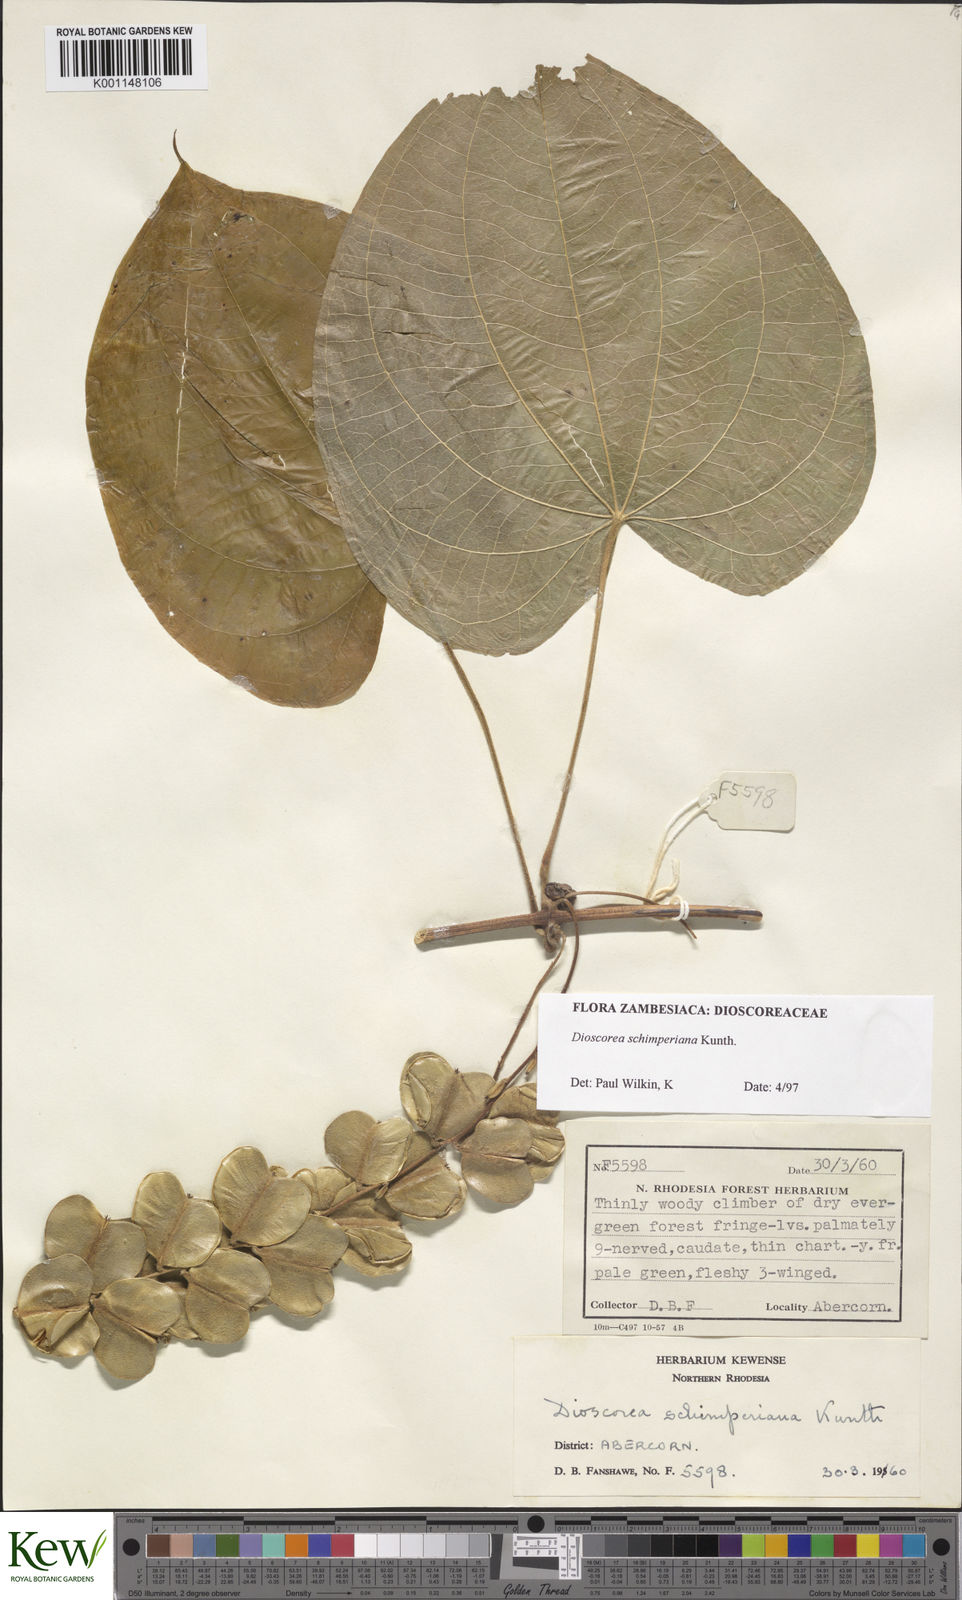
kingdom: Plantae
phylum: Tracheophyta
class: Liliopsida
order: Dioscoreales
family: Dioscoreaceae
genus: Dioscorea
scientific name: Dioscorea schimperiana
